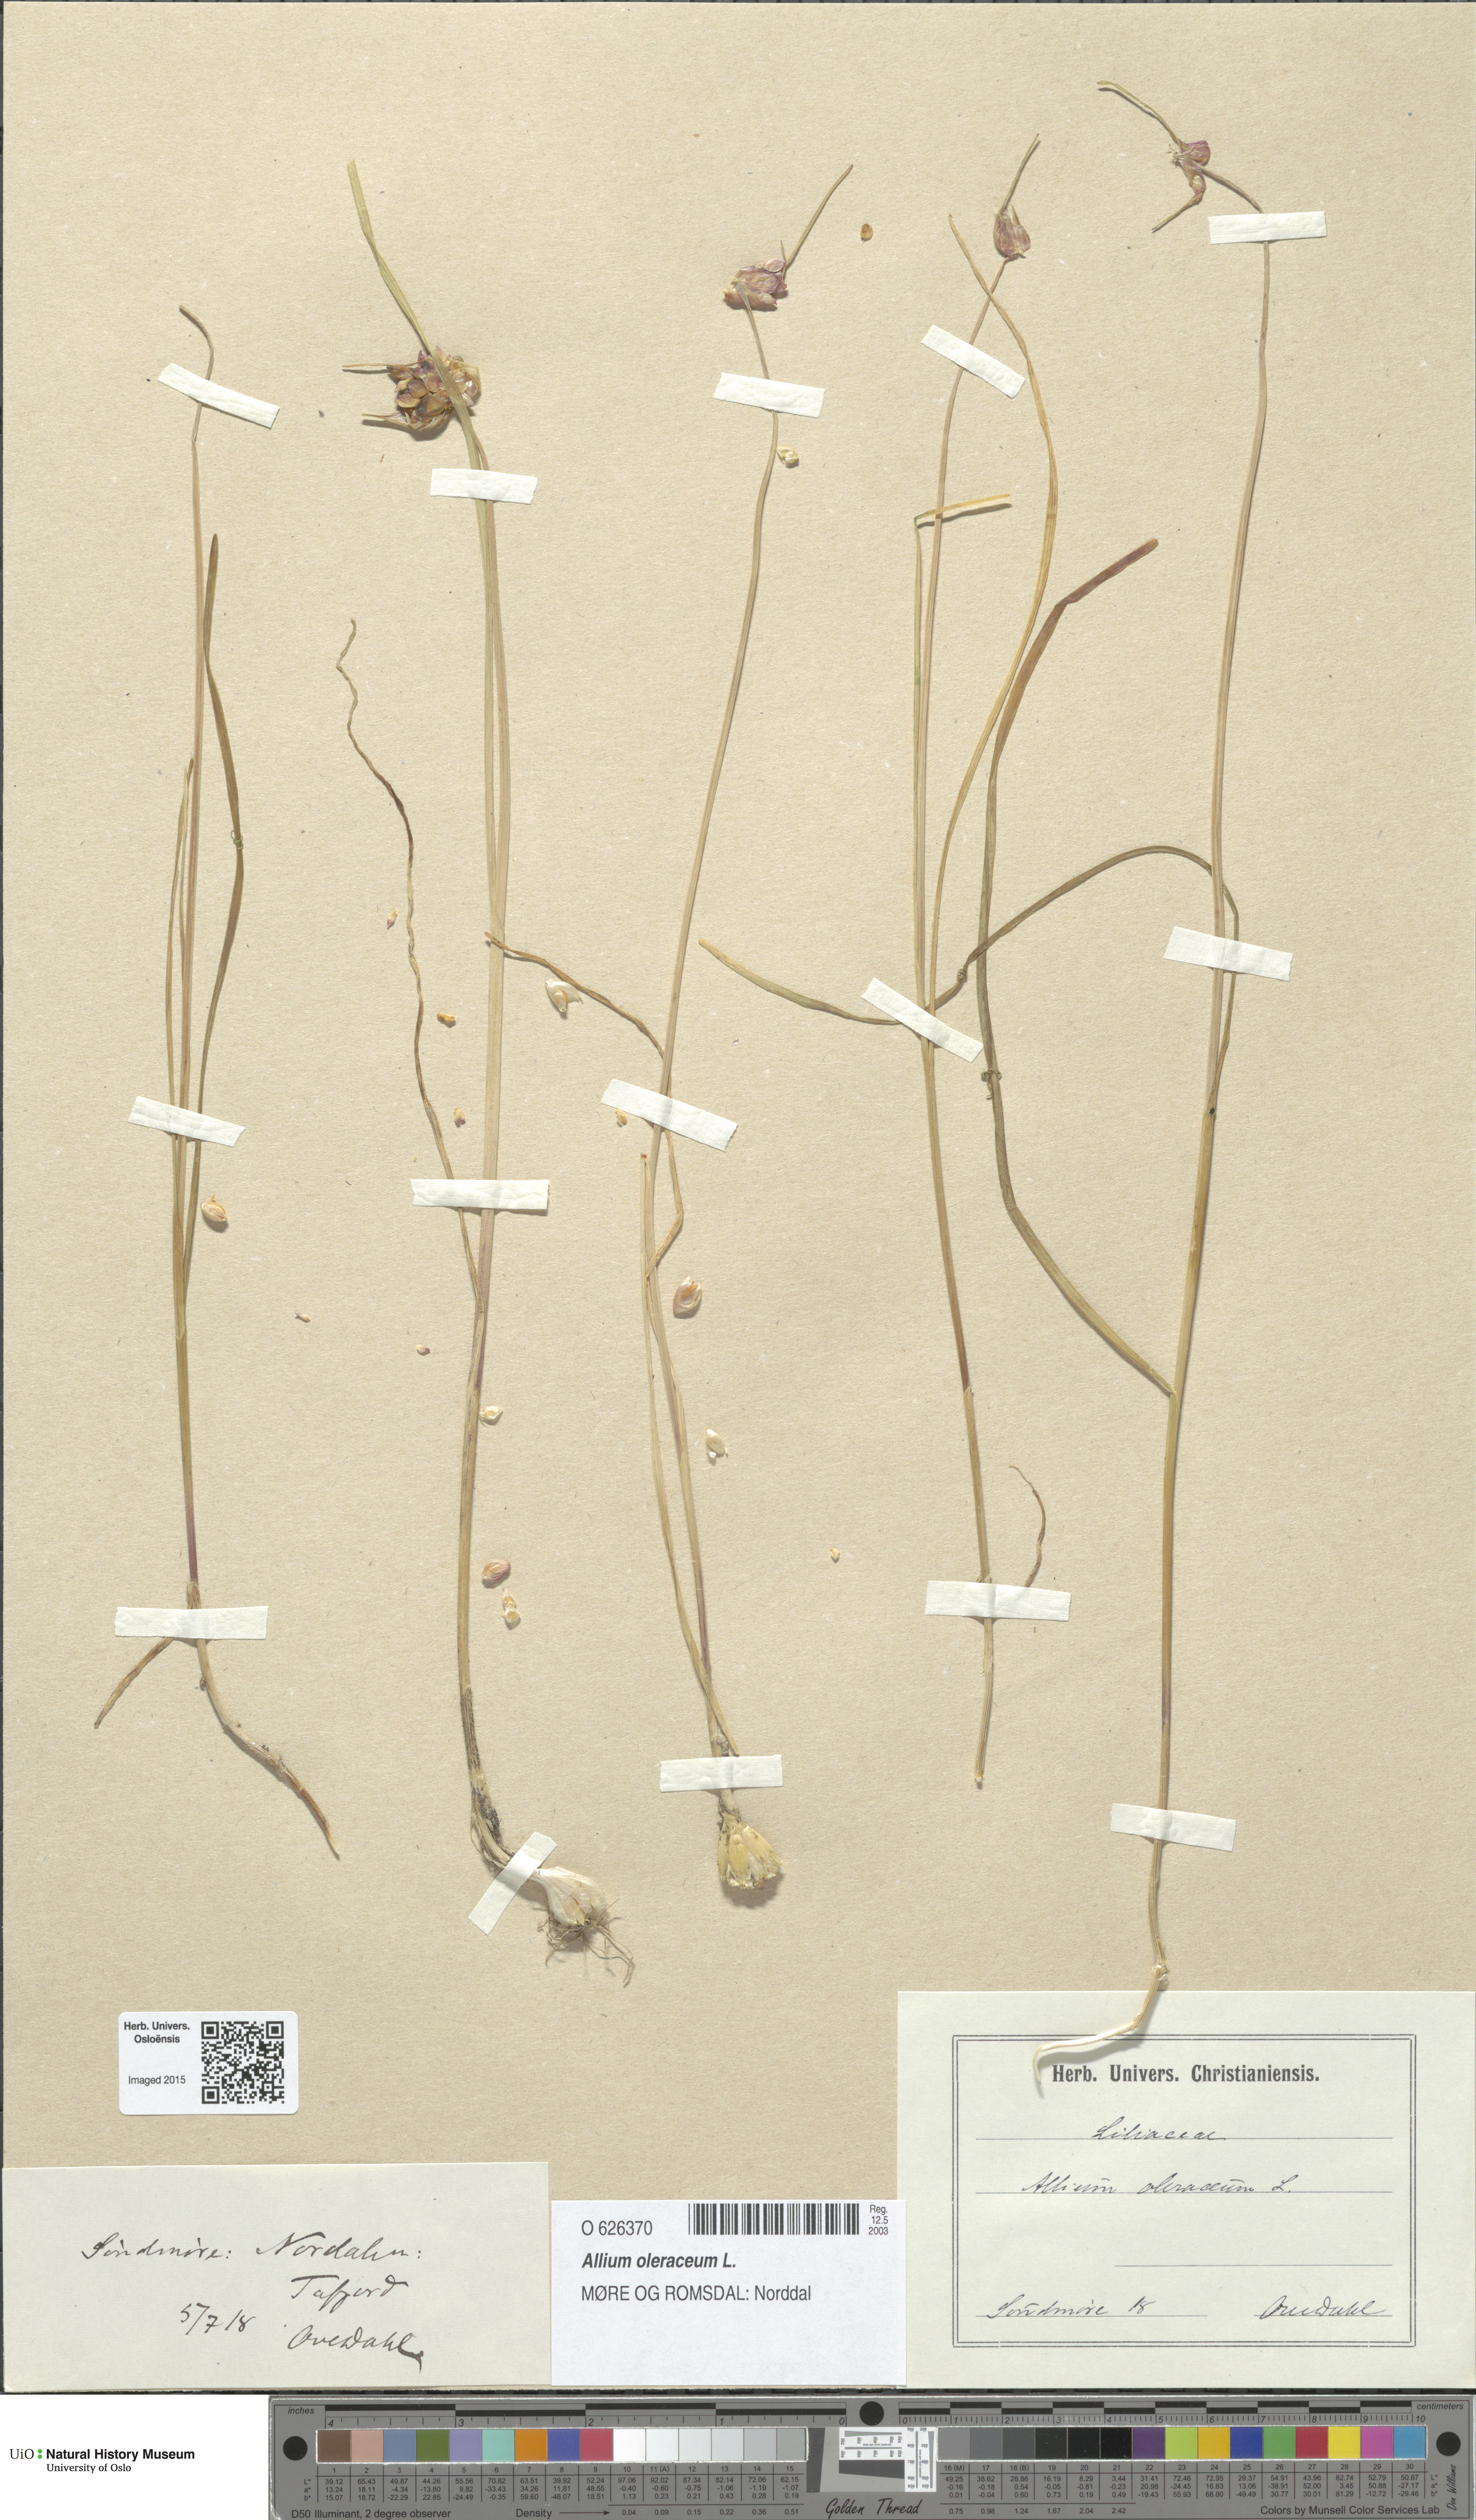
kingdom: Plantae
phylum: Tracheophyta
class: Liliopsida
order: Asparagales
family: Amaryllidaceae
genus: Allium
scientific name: Allium oleraceum
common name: Field garlic
